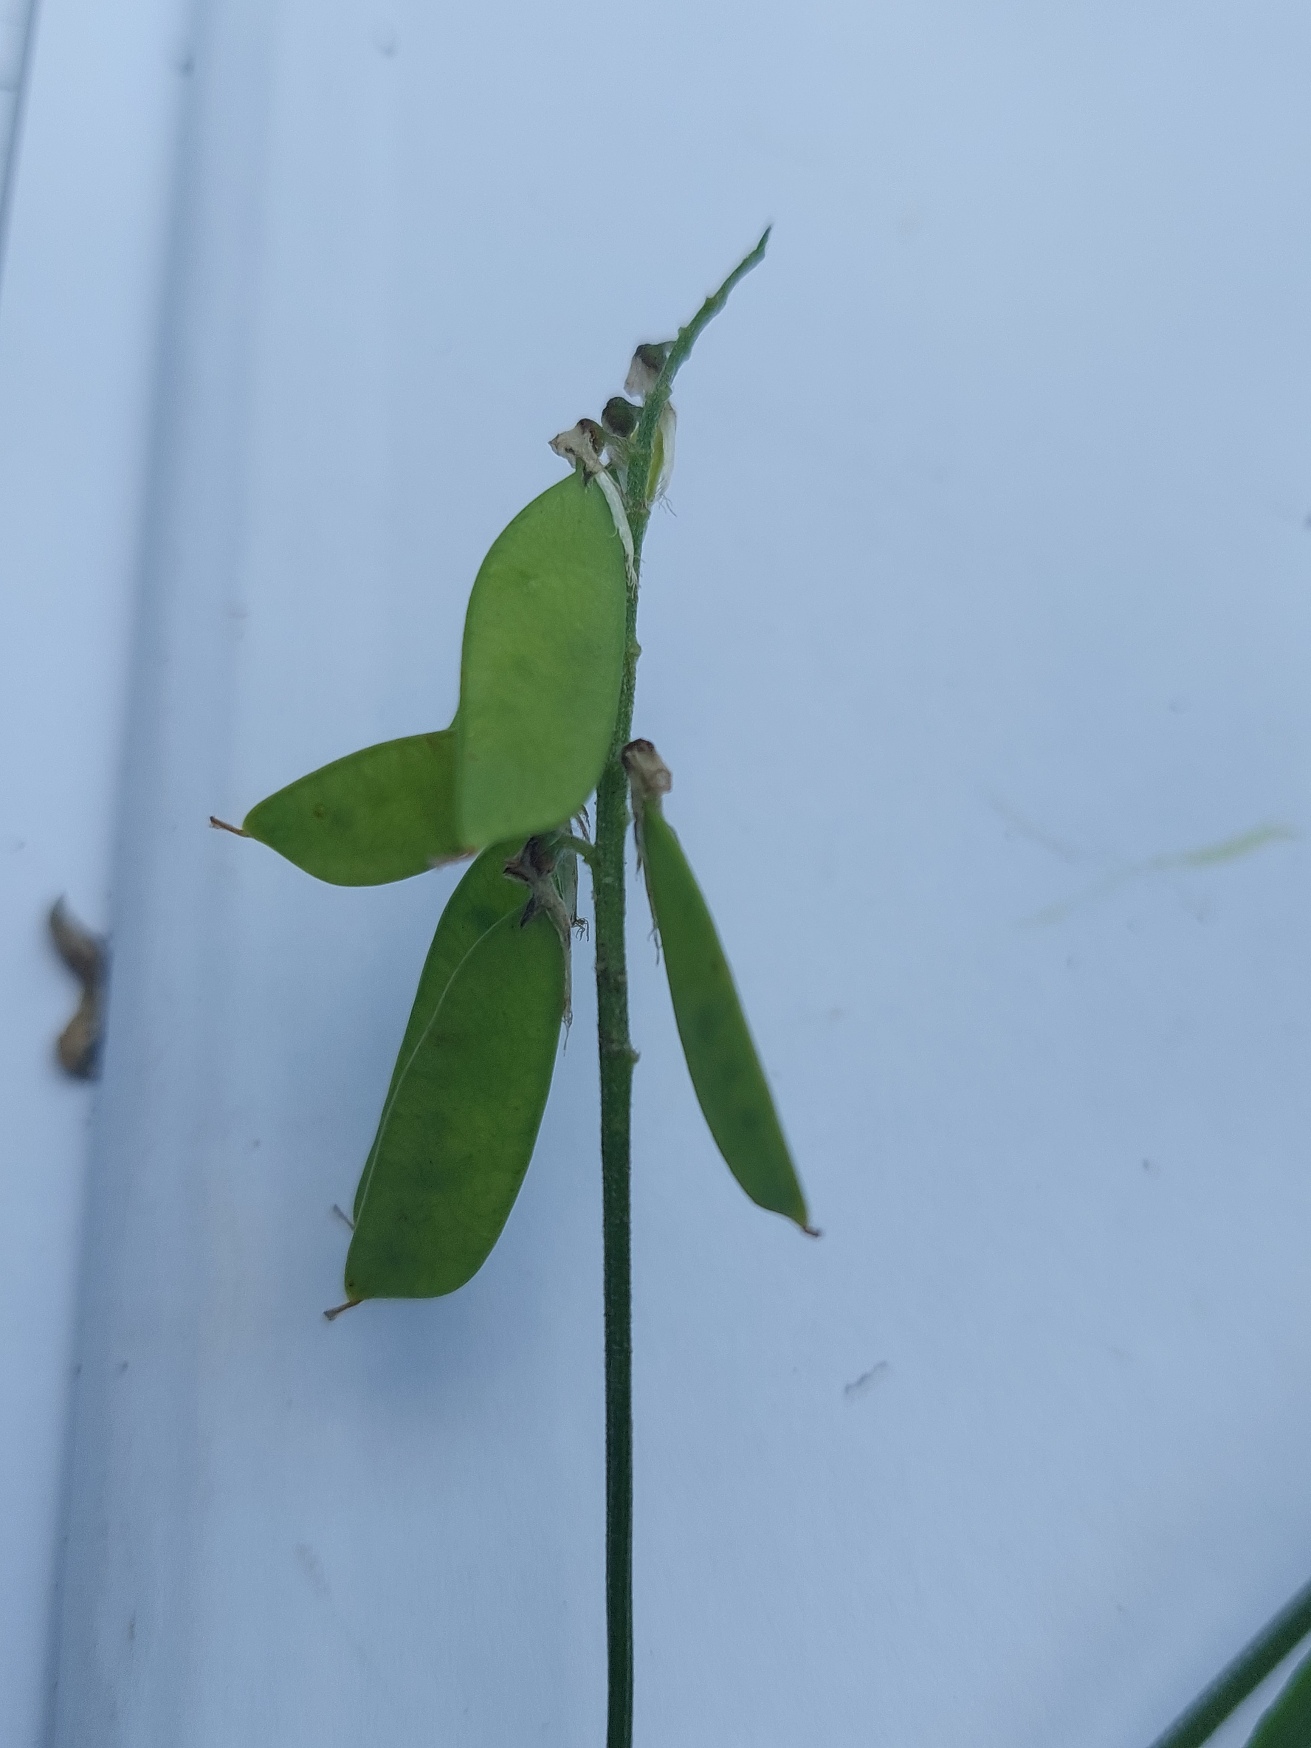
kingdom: Plantae
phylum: Tracheophyta
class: Magnoliopsida
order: Fabales
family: Fabaceae
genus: Vicia
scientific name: Vicia cracca
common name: Muse-vikke
